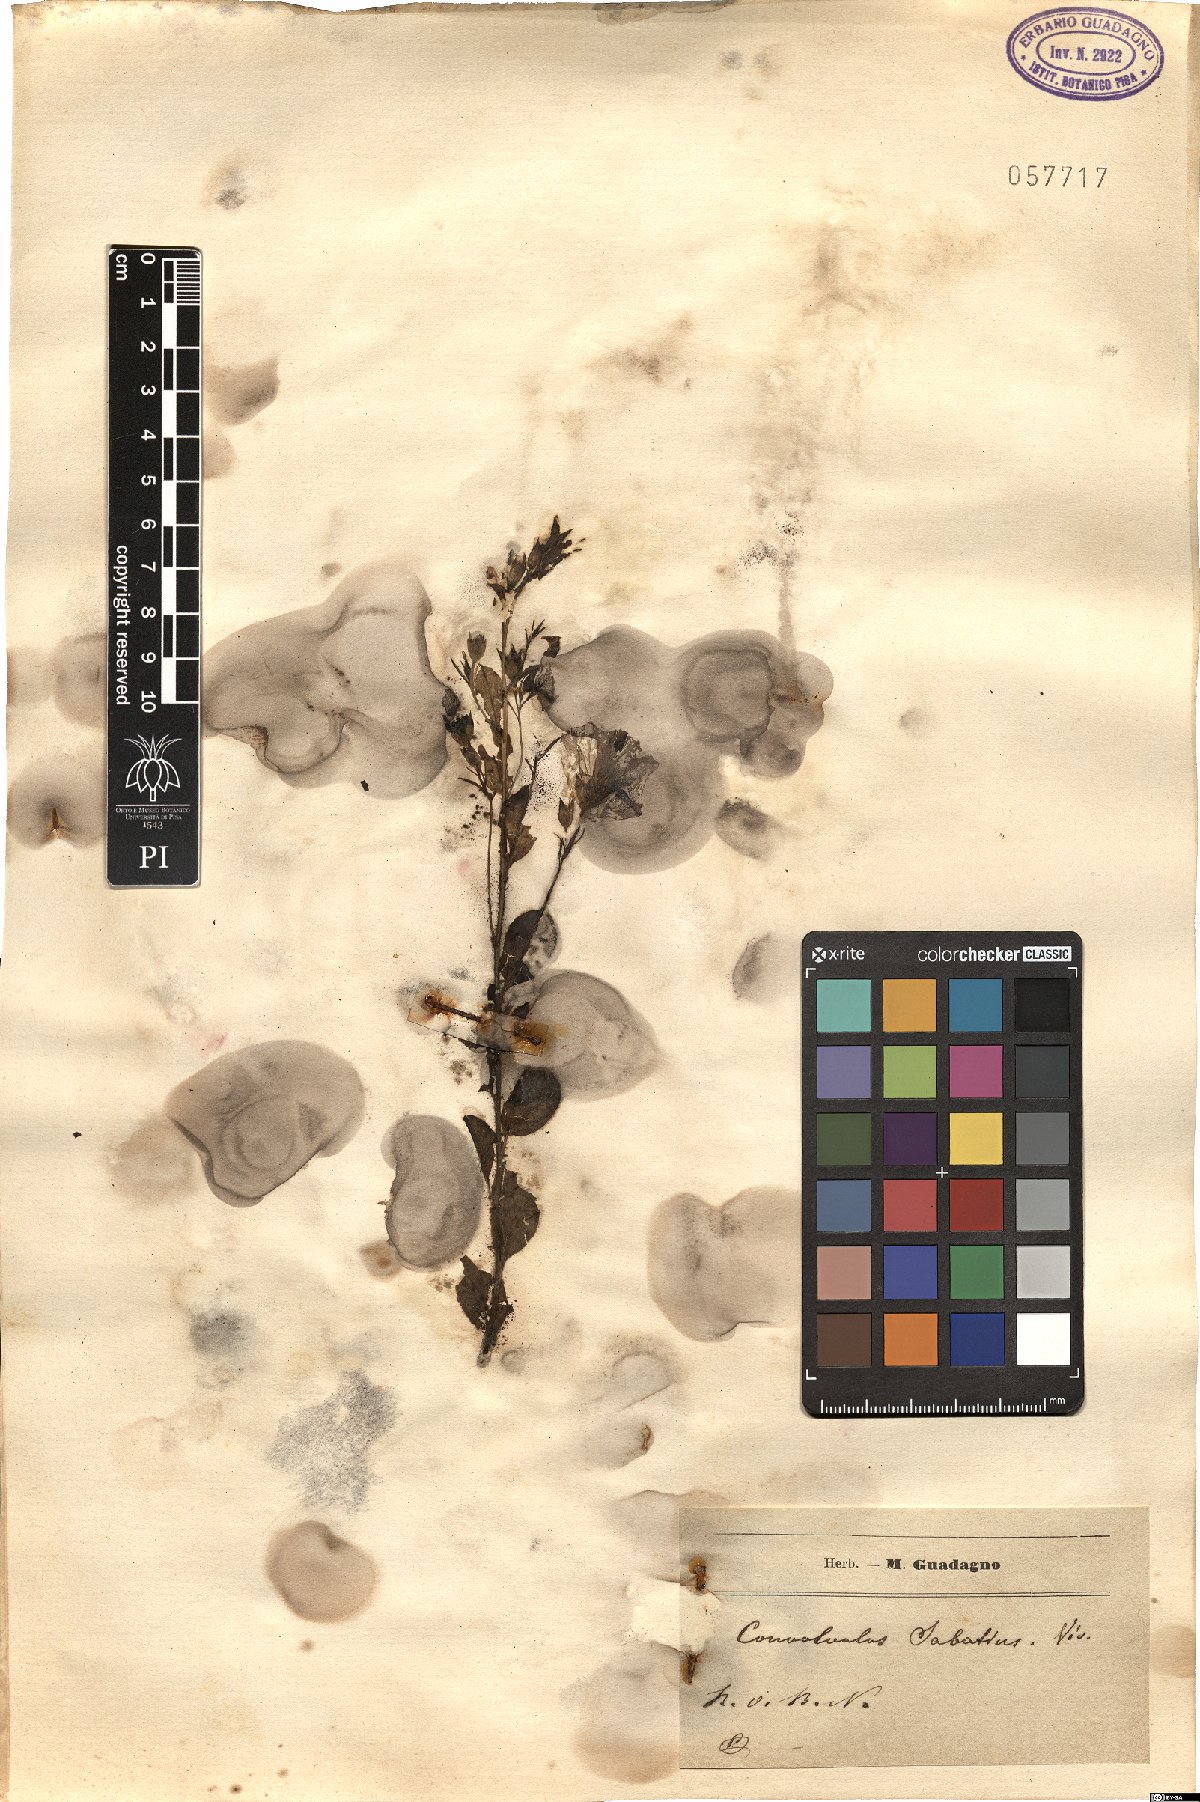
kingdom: Plantae
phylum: Tracheophyta
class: Magnoliopsida
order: Solanales
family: Convolvulaceae
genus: Convolvulus
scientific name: Convolvulus sabatius
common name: Ground blue-convolvulus
